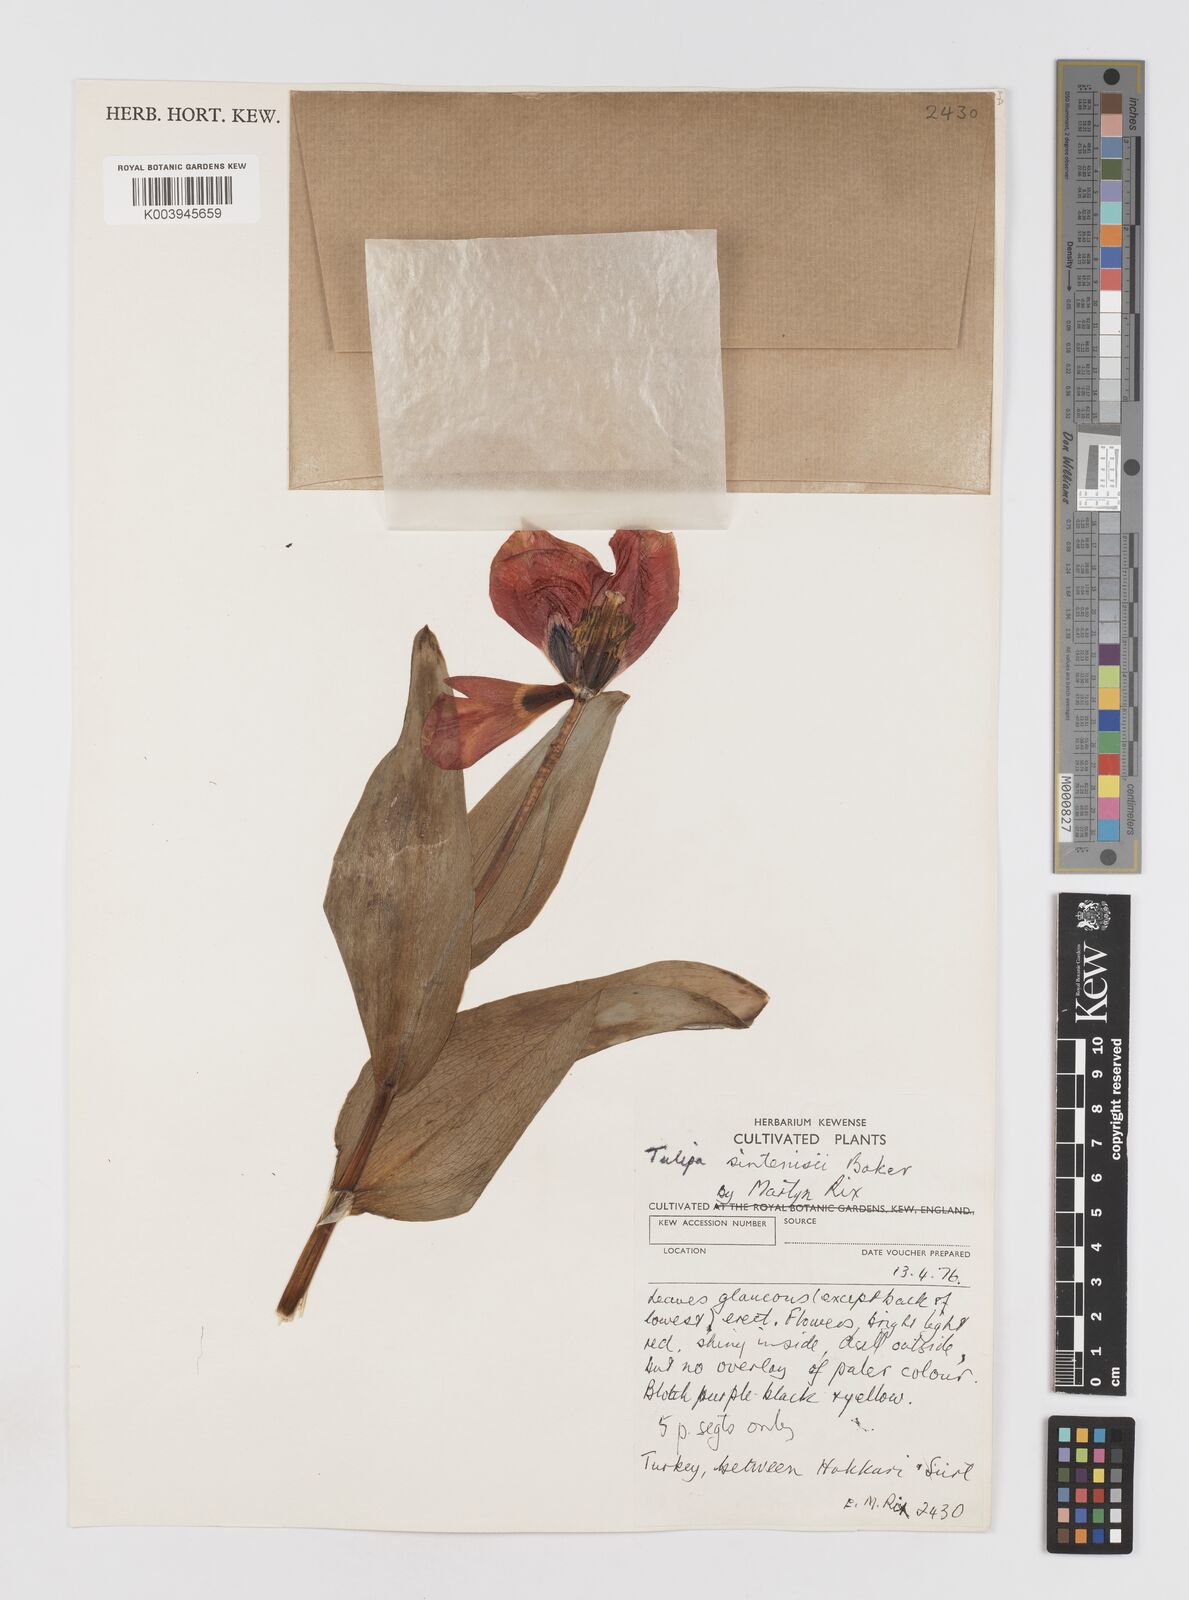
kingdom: Plantae
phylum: Tracheophyta
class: Liliopsida
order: Liliales
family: Liliaceae
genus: Tulipa
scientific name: Tulipa aleppensis
